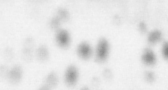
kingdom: Animalia
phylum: Chordata
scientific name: Chordata
